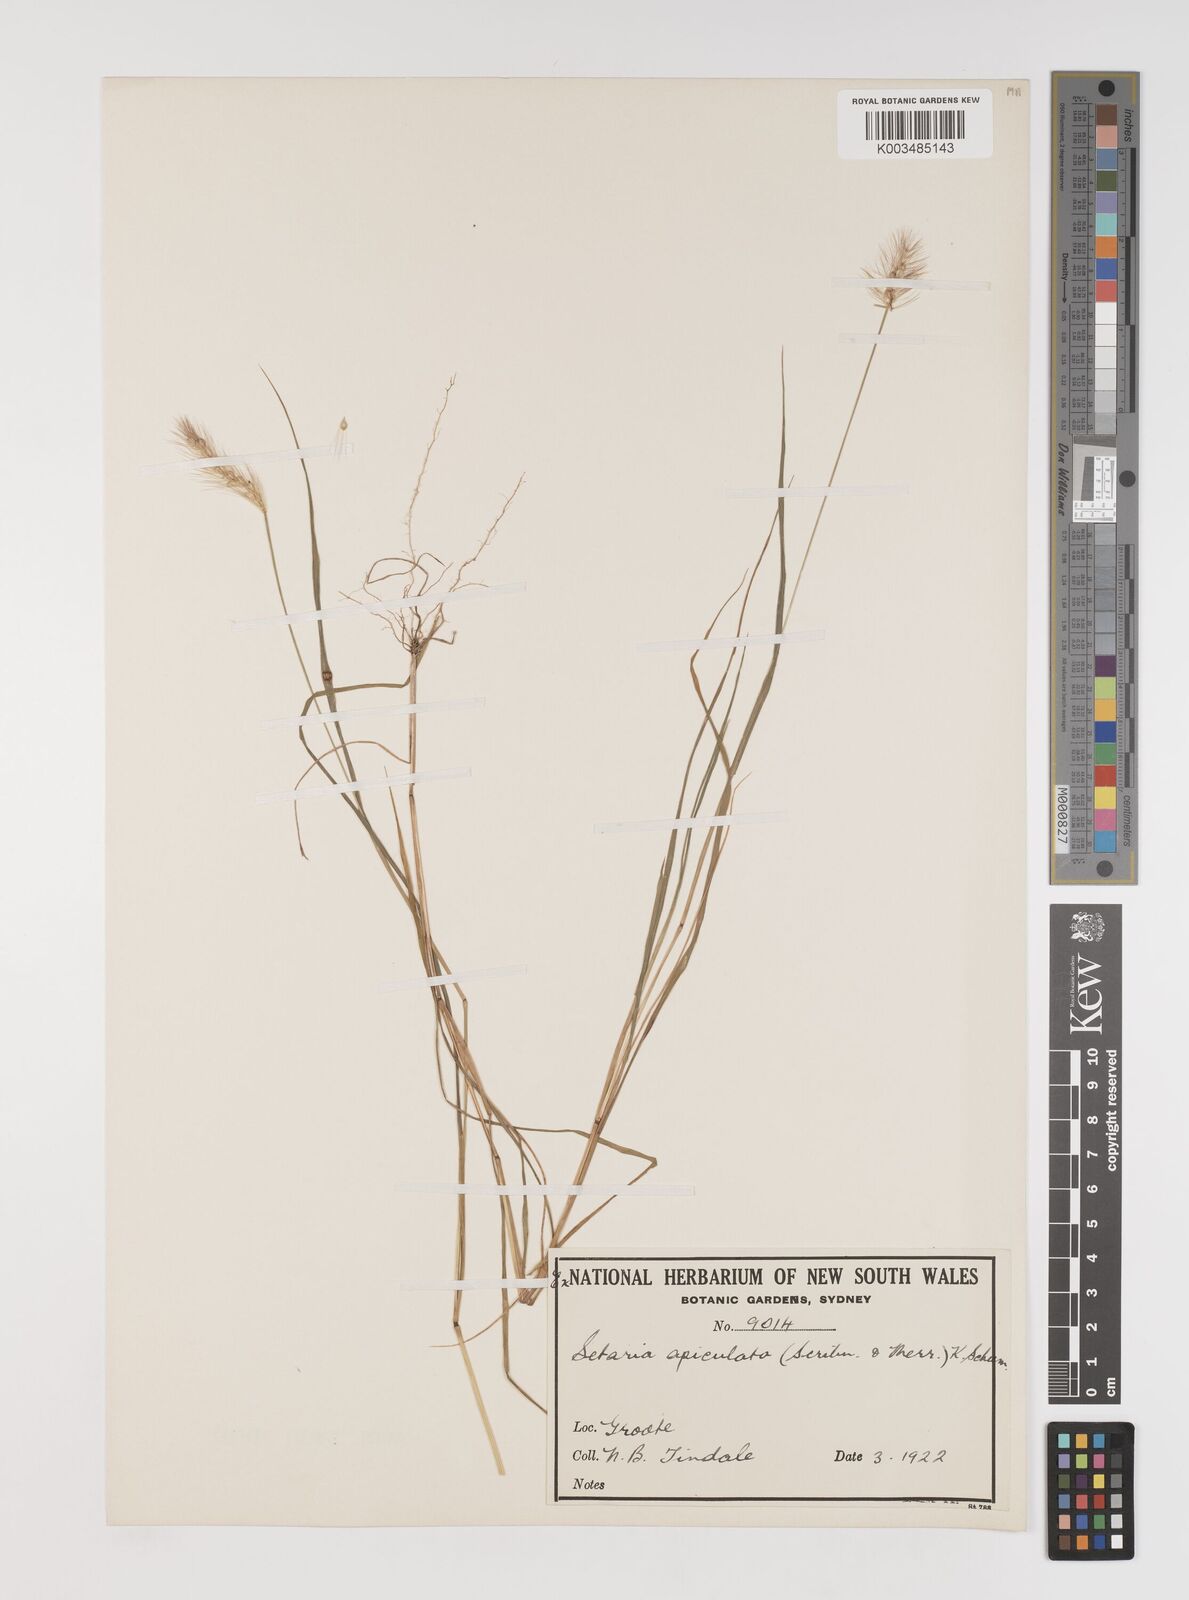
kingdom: Plantae
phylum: Tracheophyta
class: Liliopsida
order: Poales
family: Poaceae
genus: Setaria
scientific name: Setaria apiculata
